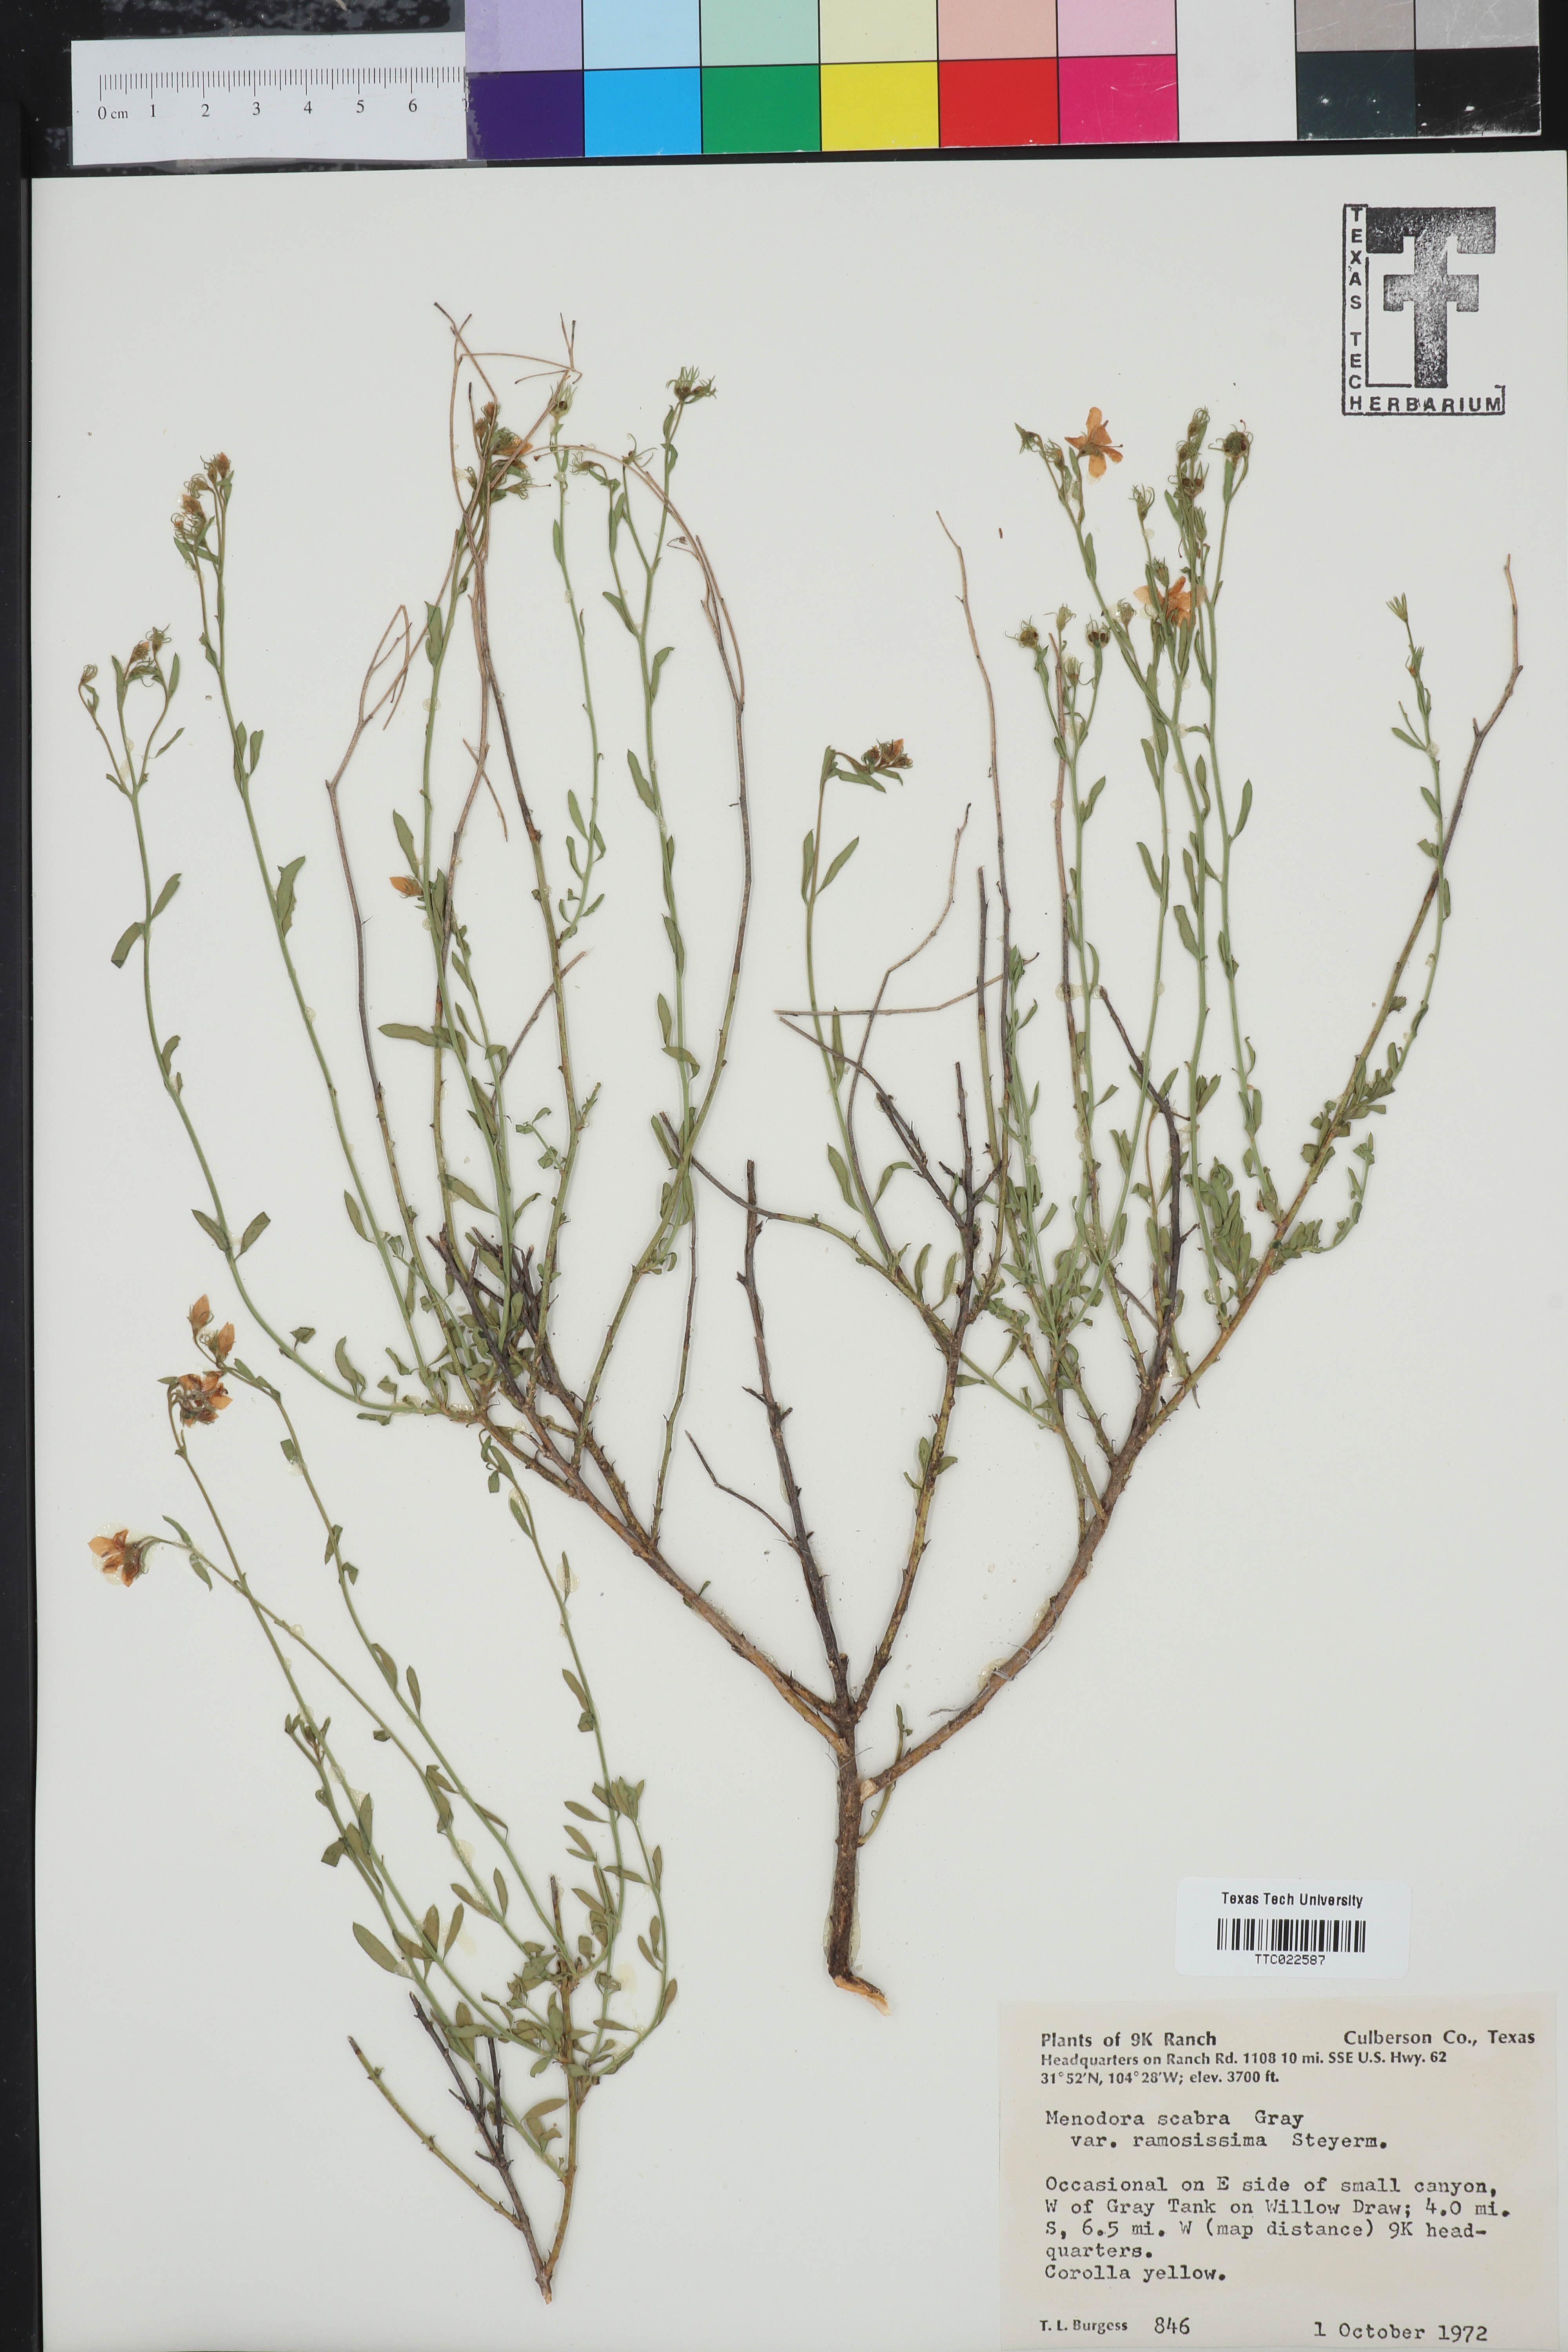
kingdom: Plantae
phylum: Tracheophyta
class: Magnoliopsida
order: Lamiales
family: Oleaceae
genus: Menodora
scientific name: Menodora scabra
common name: Rough menodora
